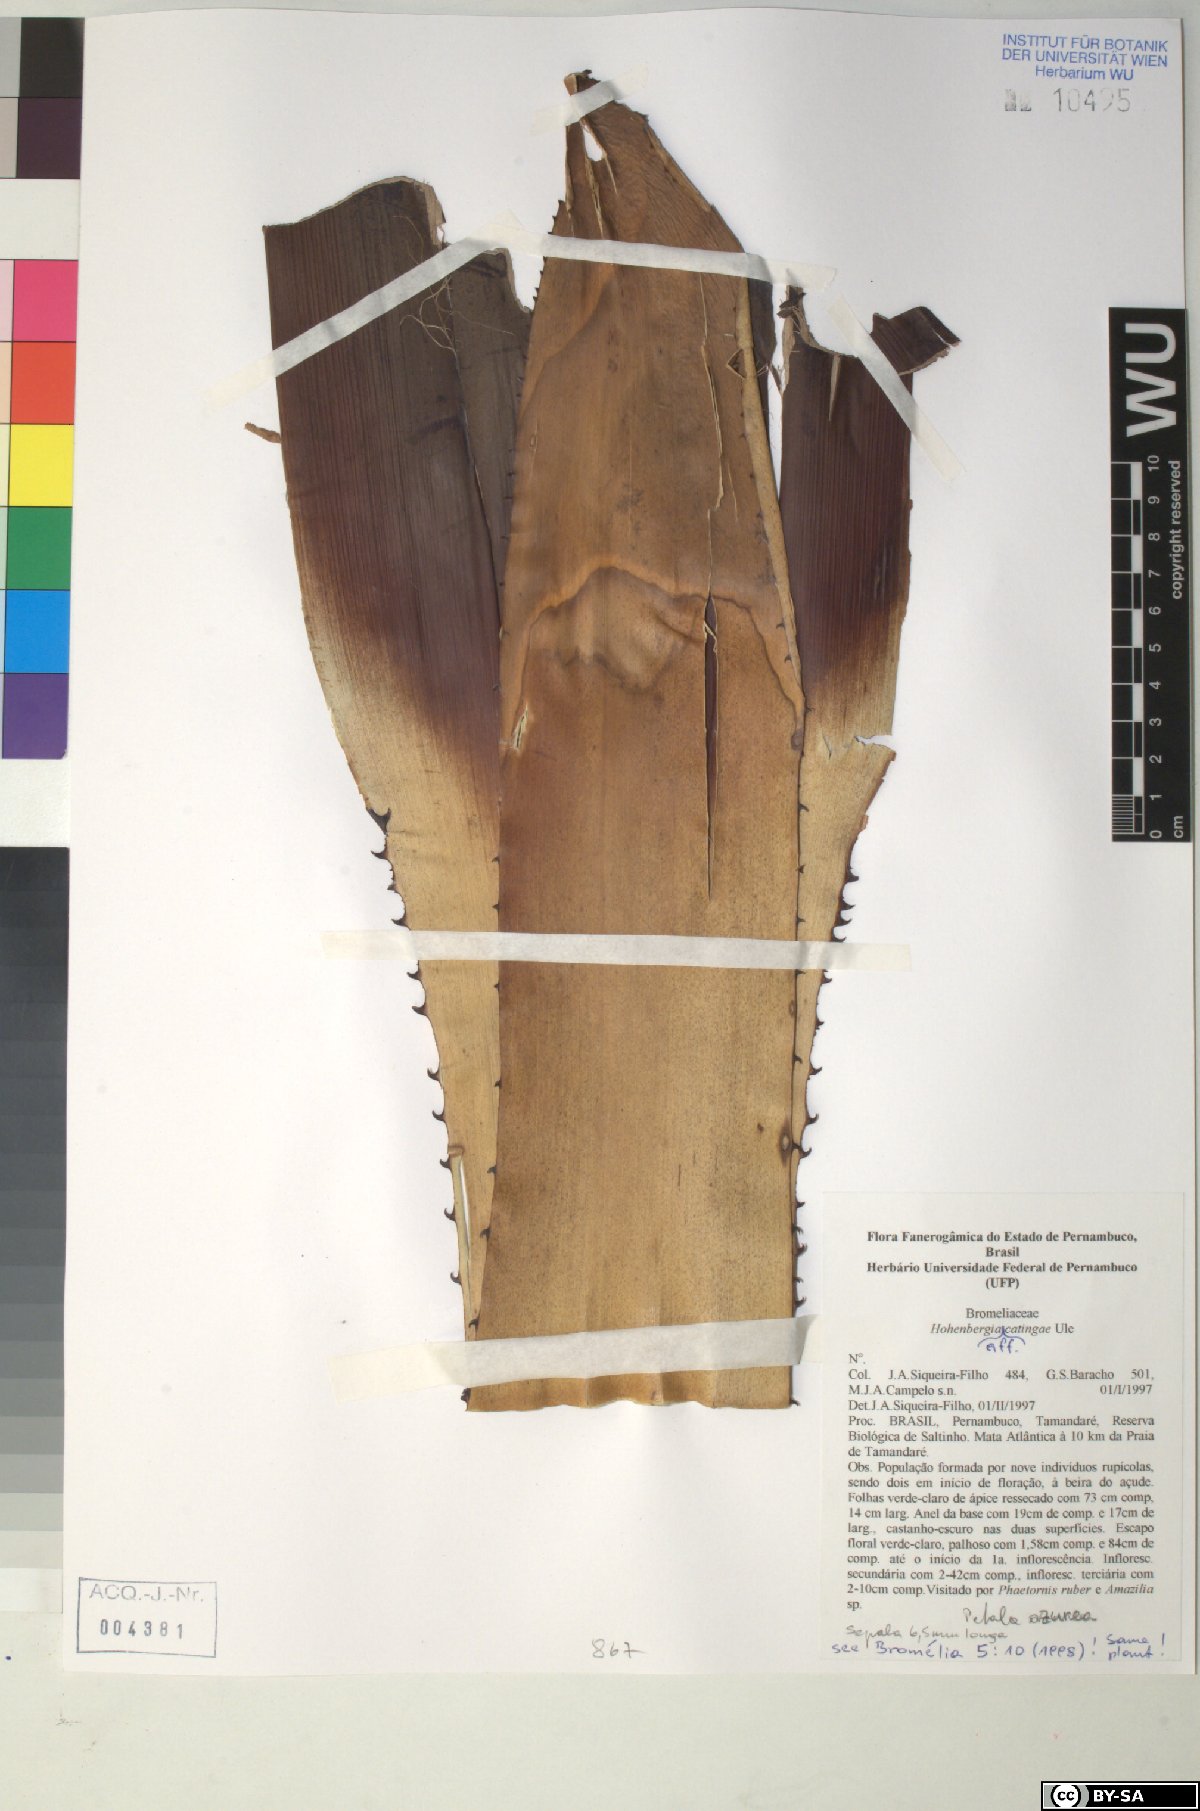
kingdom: Plantae
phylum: Tracheophyta
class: Liliopsida
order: Poales
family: Bromeliaceae
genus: Hohenbergia
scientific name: Hohenbergia catingae
